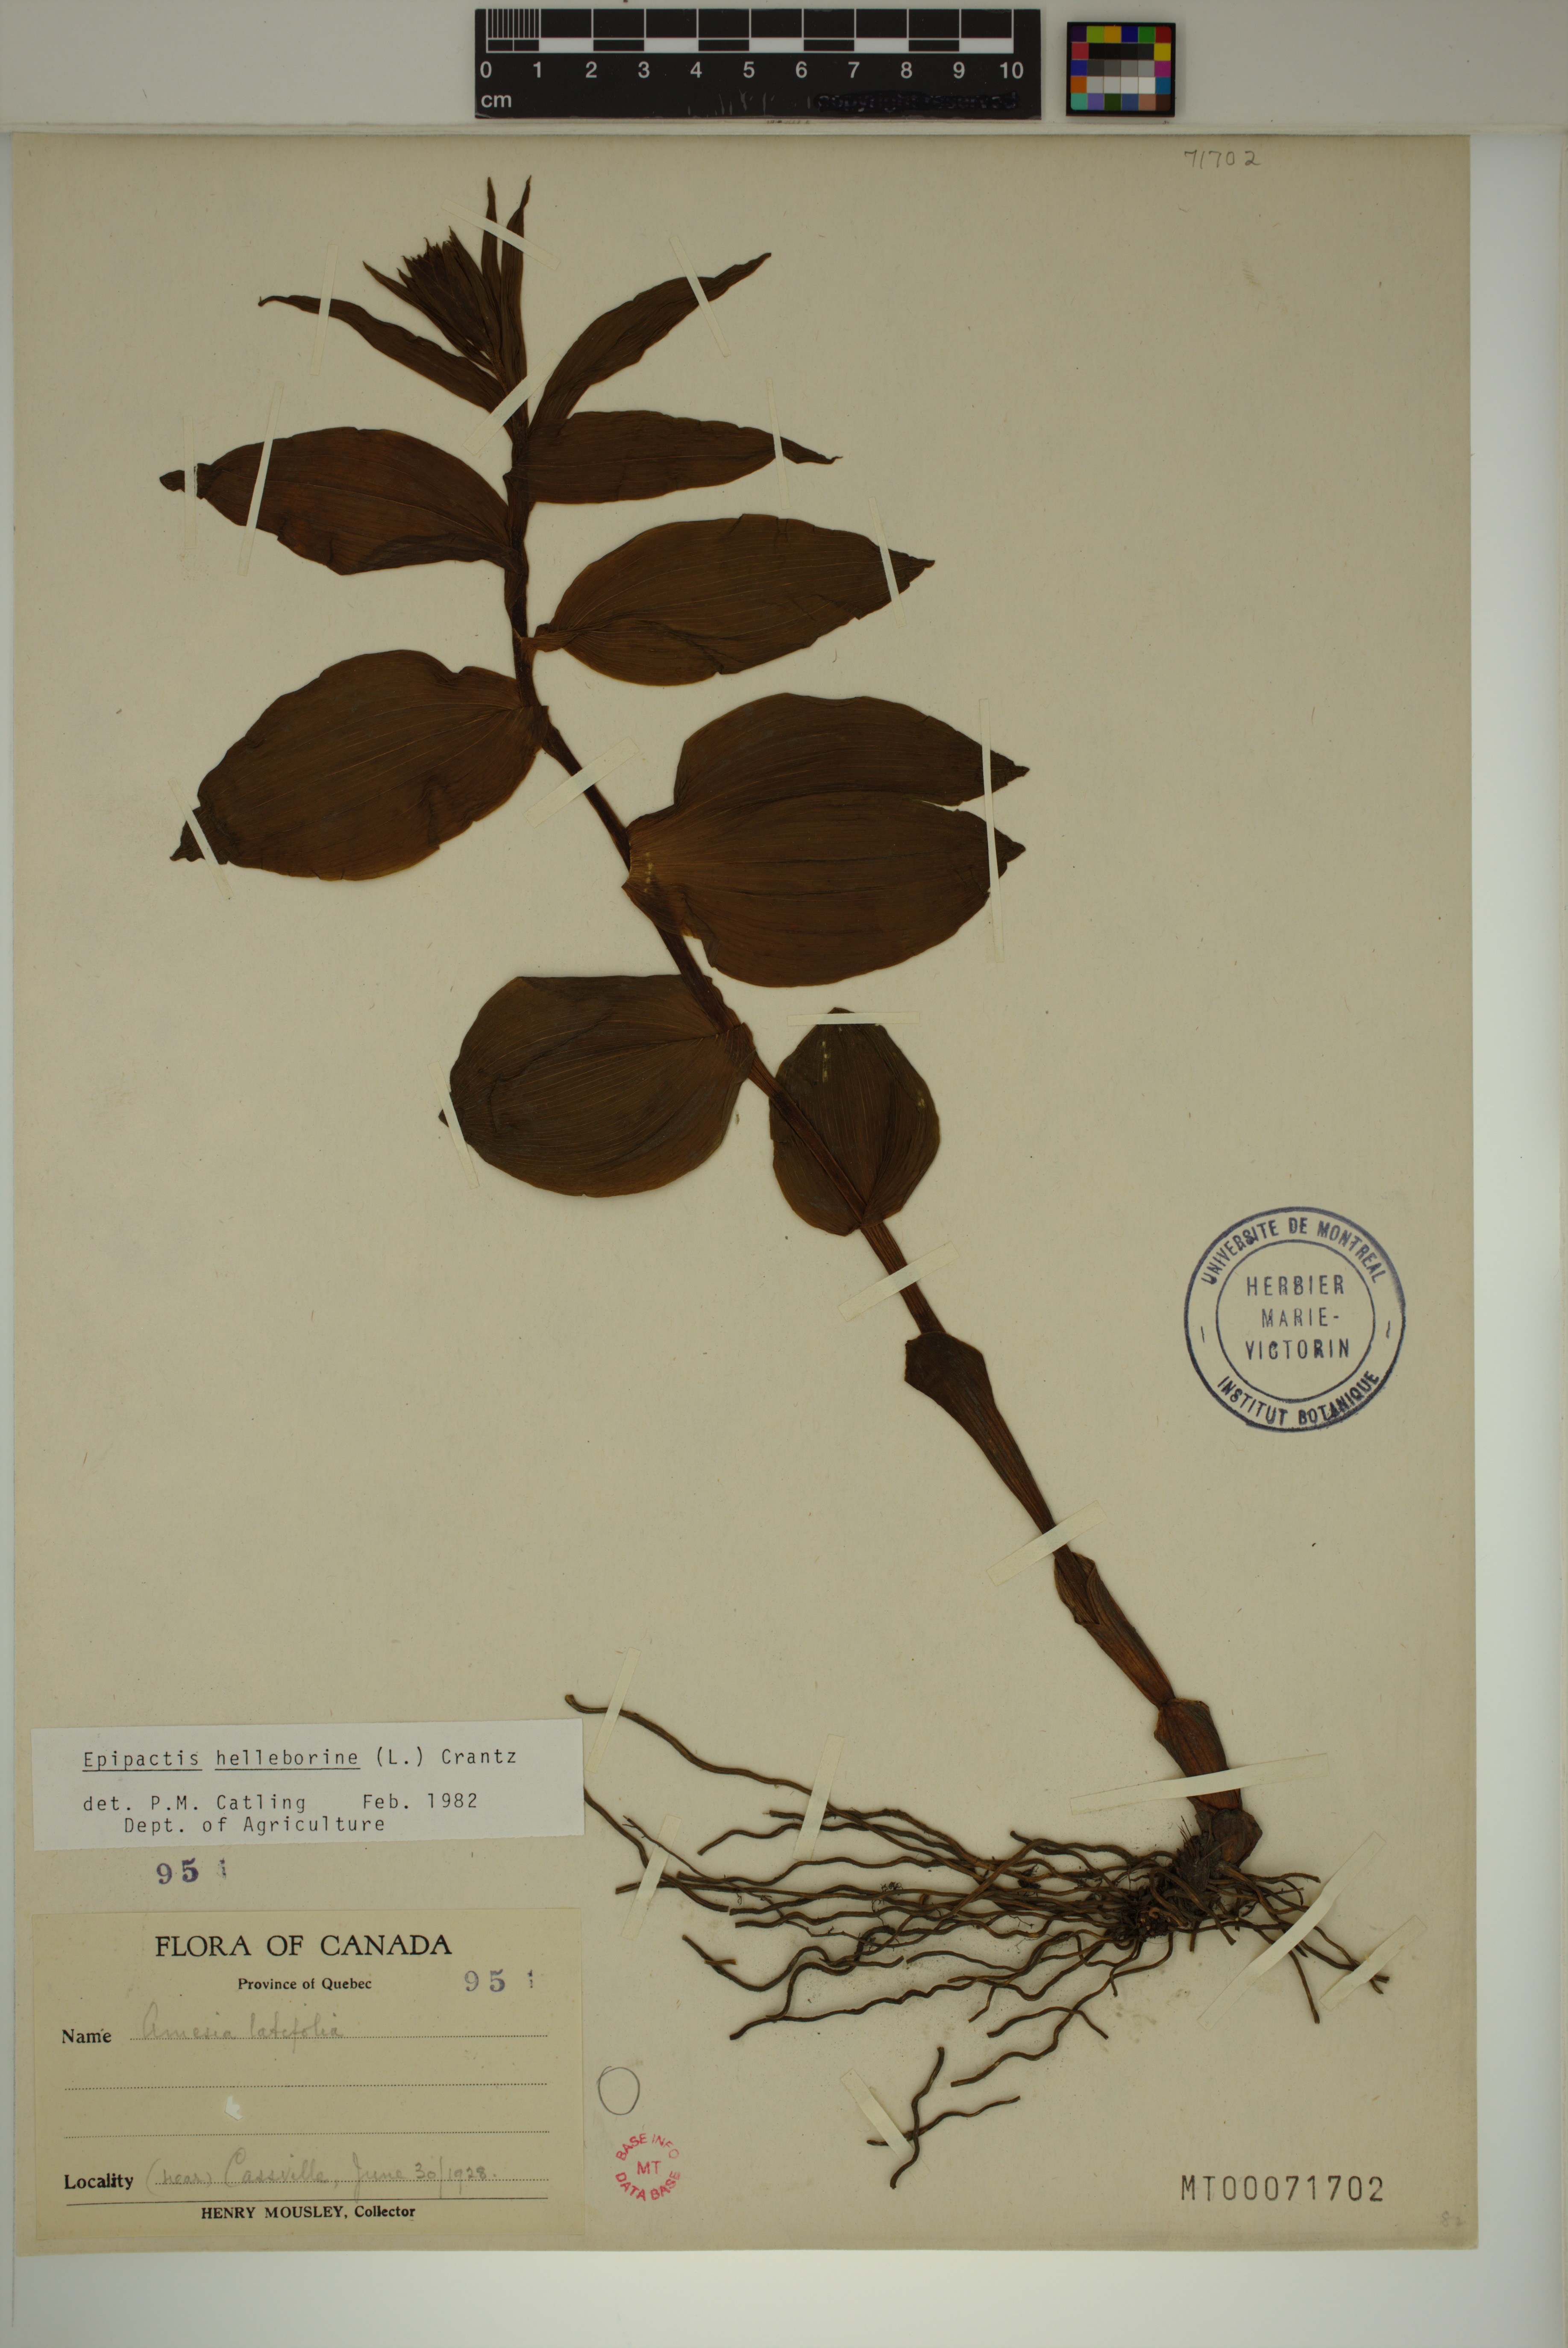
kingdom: Plantae
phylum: Tracheophyta
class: Liliopsida
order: Asparagales
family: Orchidaceae
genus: Epipactis
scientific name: Epipactis helleborine
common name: Broad-leaved helleborine
